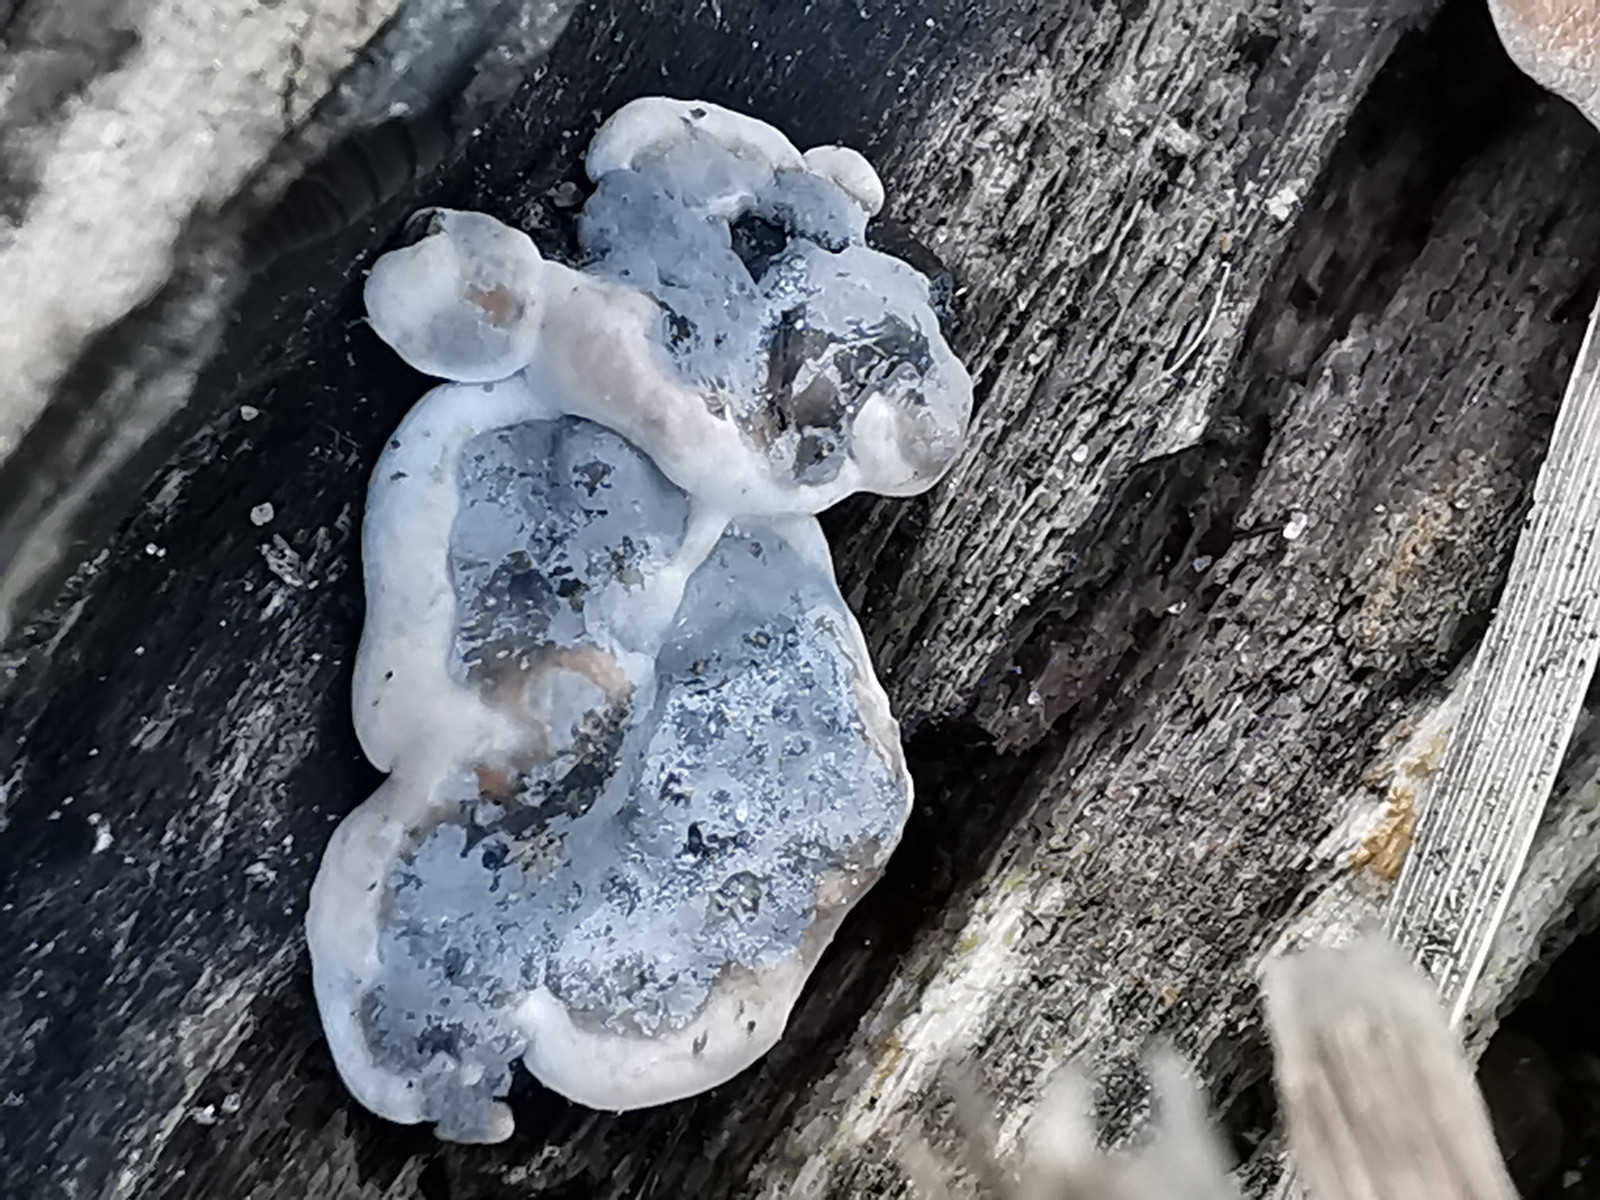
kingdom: Fungi
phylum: Ascomycota
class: Sordariomycetes
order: Xylariales
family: Xylariaceae
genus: Kretzschmaria
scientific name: Kretzschmaria deusta
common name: stor kulsvamp
